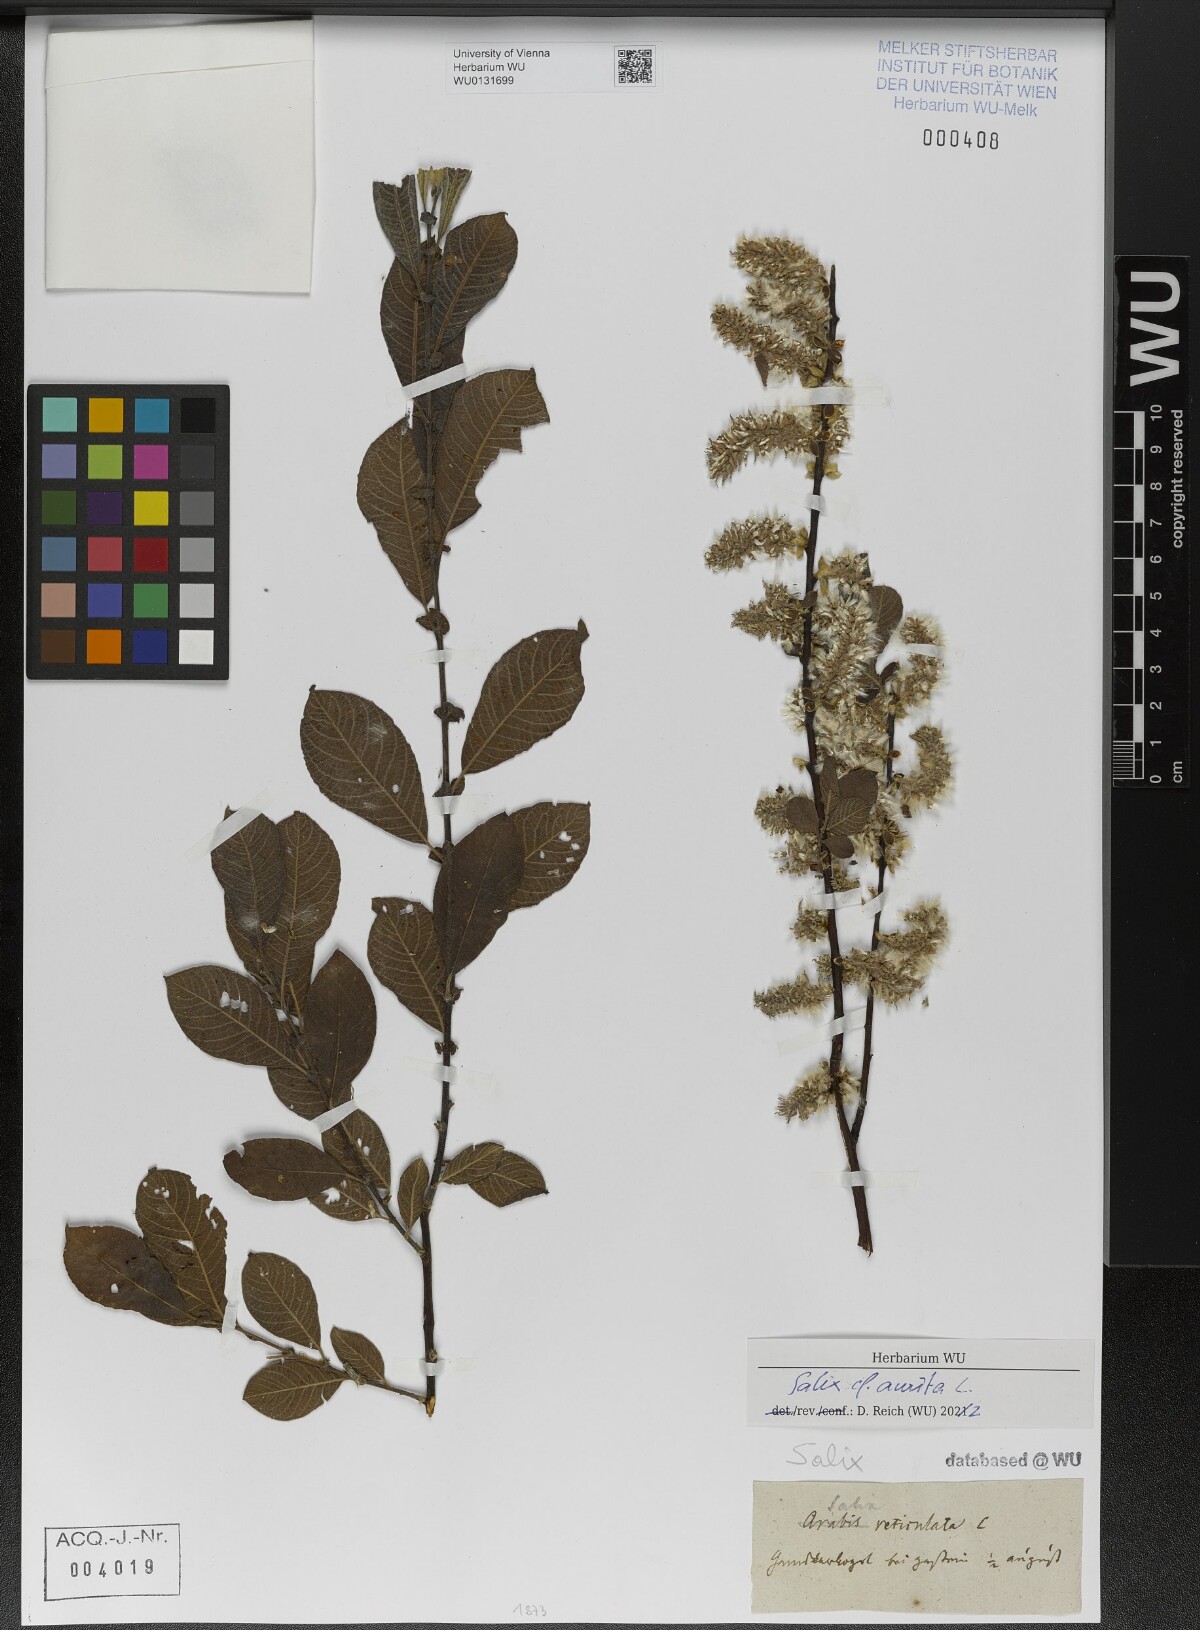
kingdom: Plantae
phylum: Tracheophyta
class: Magnoliopsida
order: Malpighiales
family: Salicaceae
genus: Salix
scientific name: Salix aurita
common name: Eared willow
